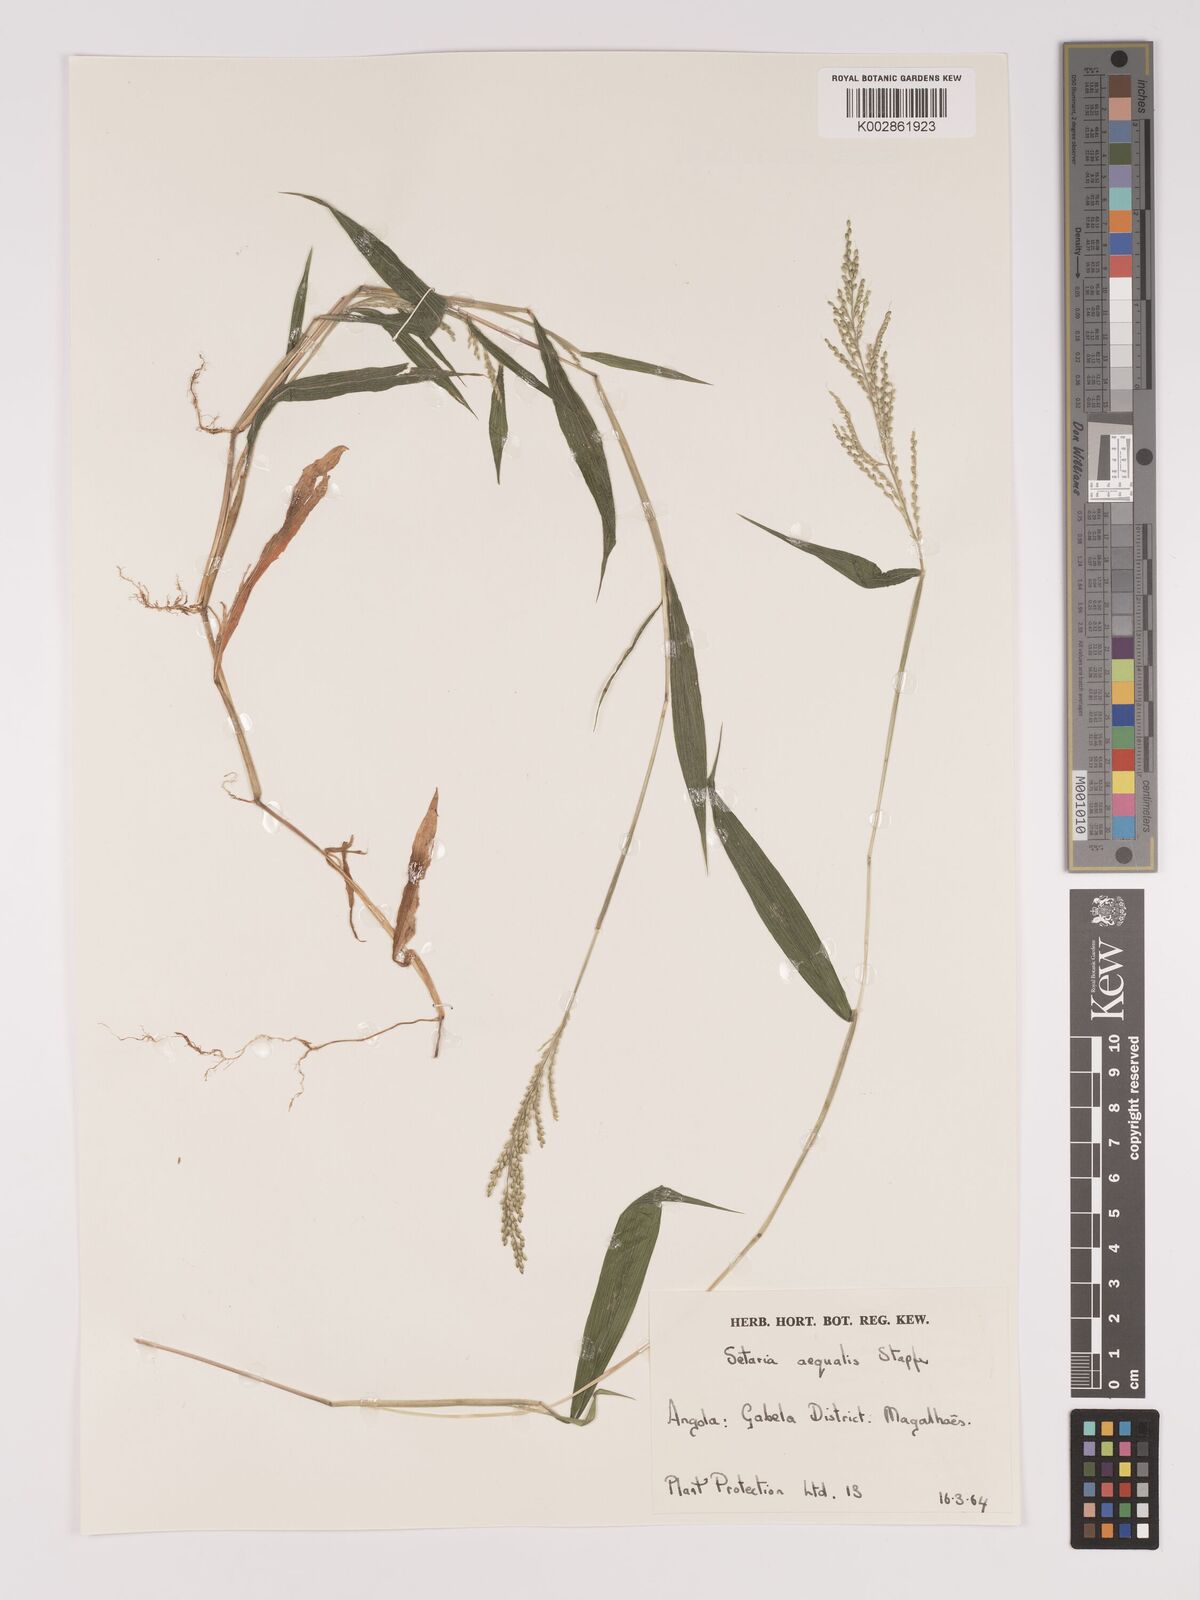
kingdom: Plantae
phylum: Tracheophyta
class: Liliopsida
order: Poales
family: Poaceae
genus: Setaria
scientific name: Setaria homonyma
